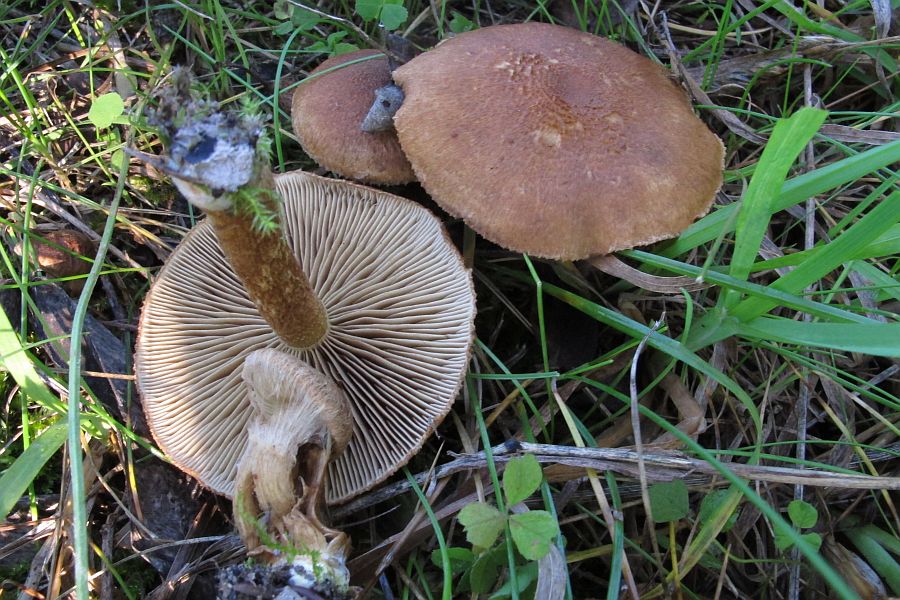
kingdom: Fungi
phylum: Basidiomycota
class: Agaricomycetes
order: Agaricales
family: Inocybaceae
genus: Mallocybe
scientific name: Mallocybe agardhii
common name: Agardhs trævlhat
